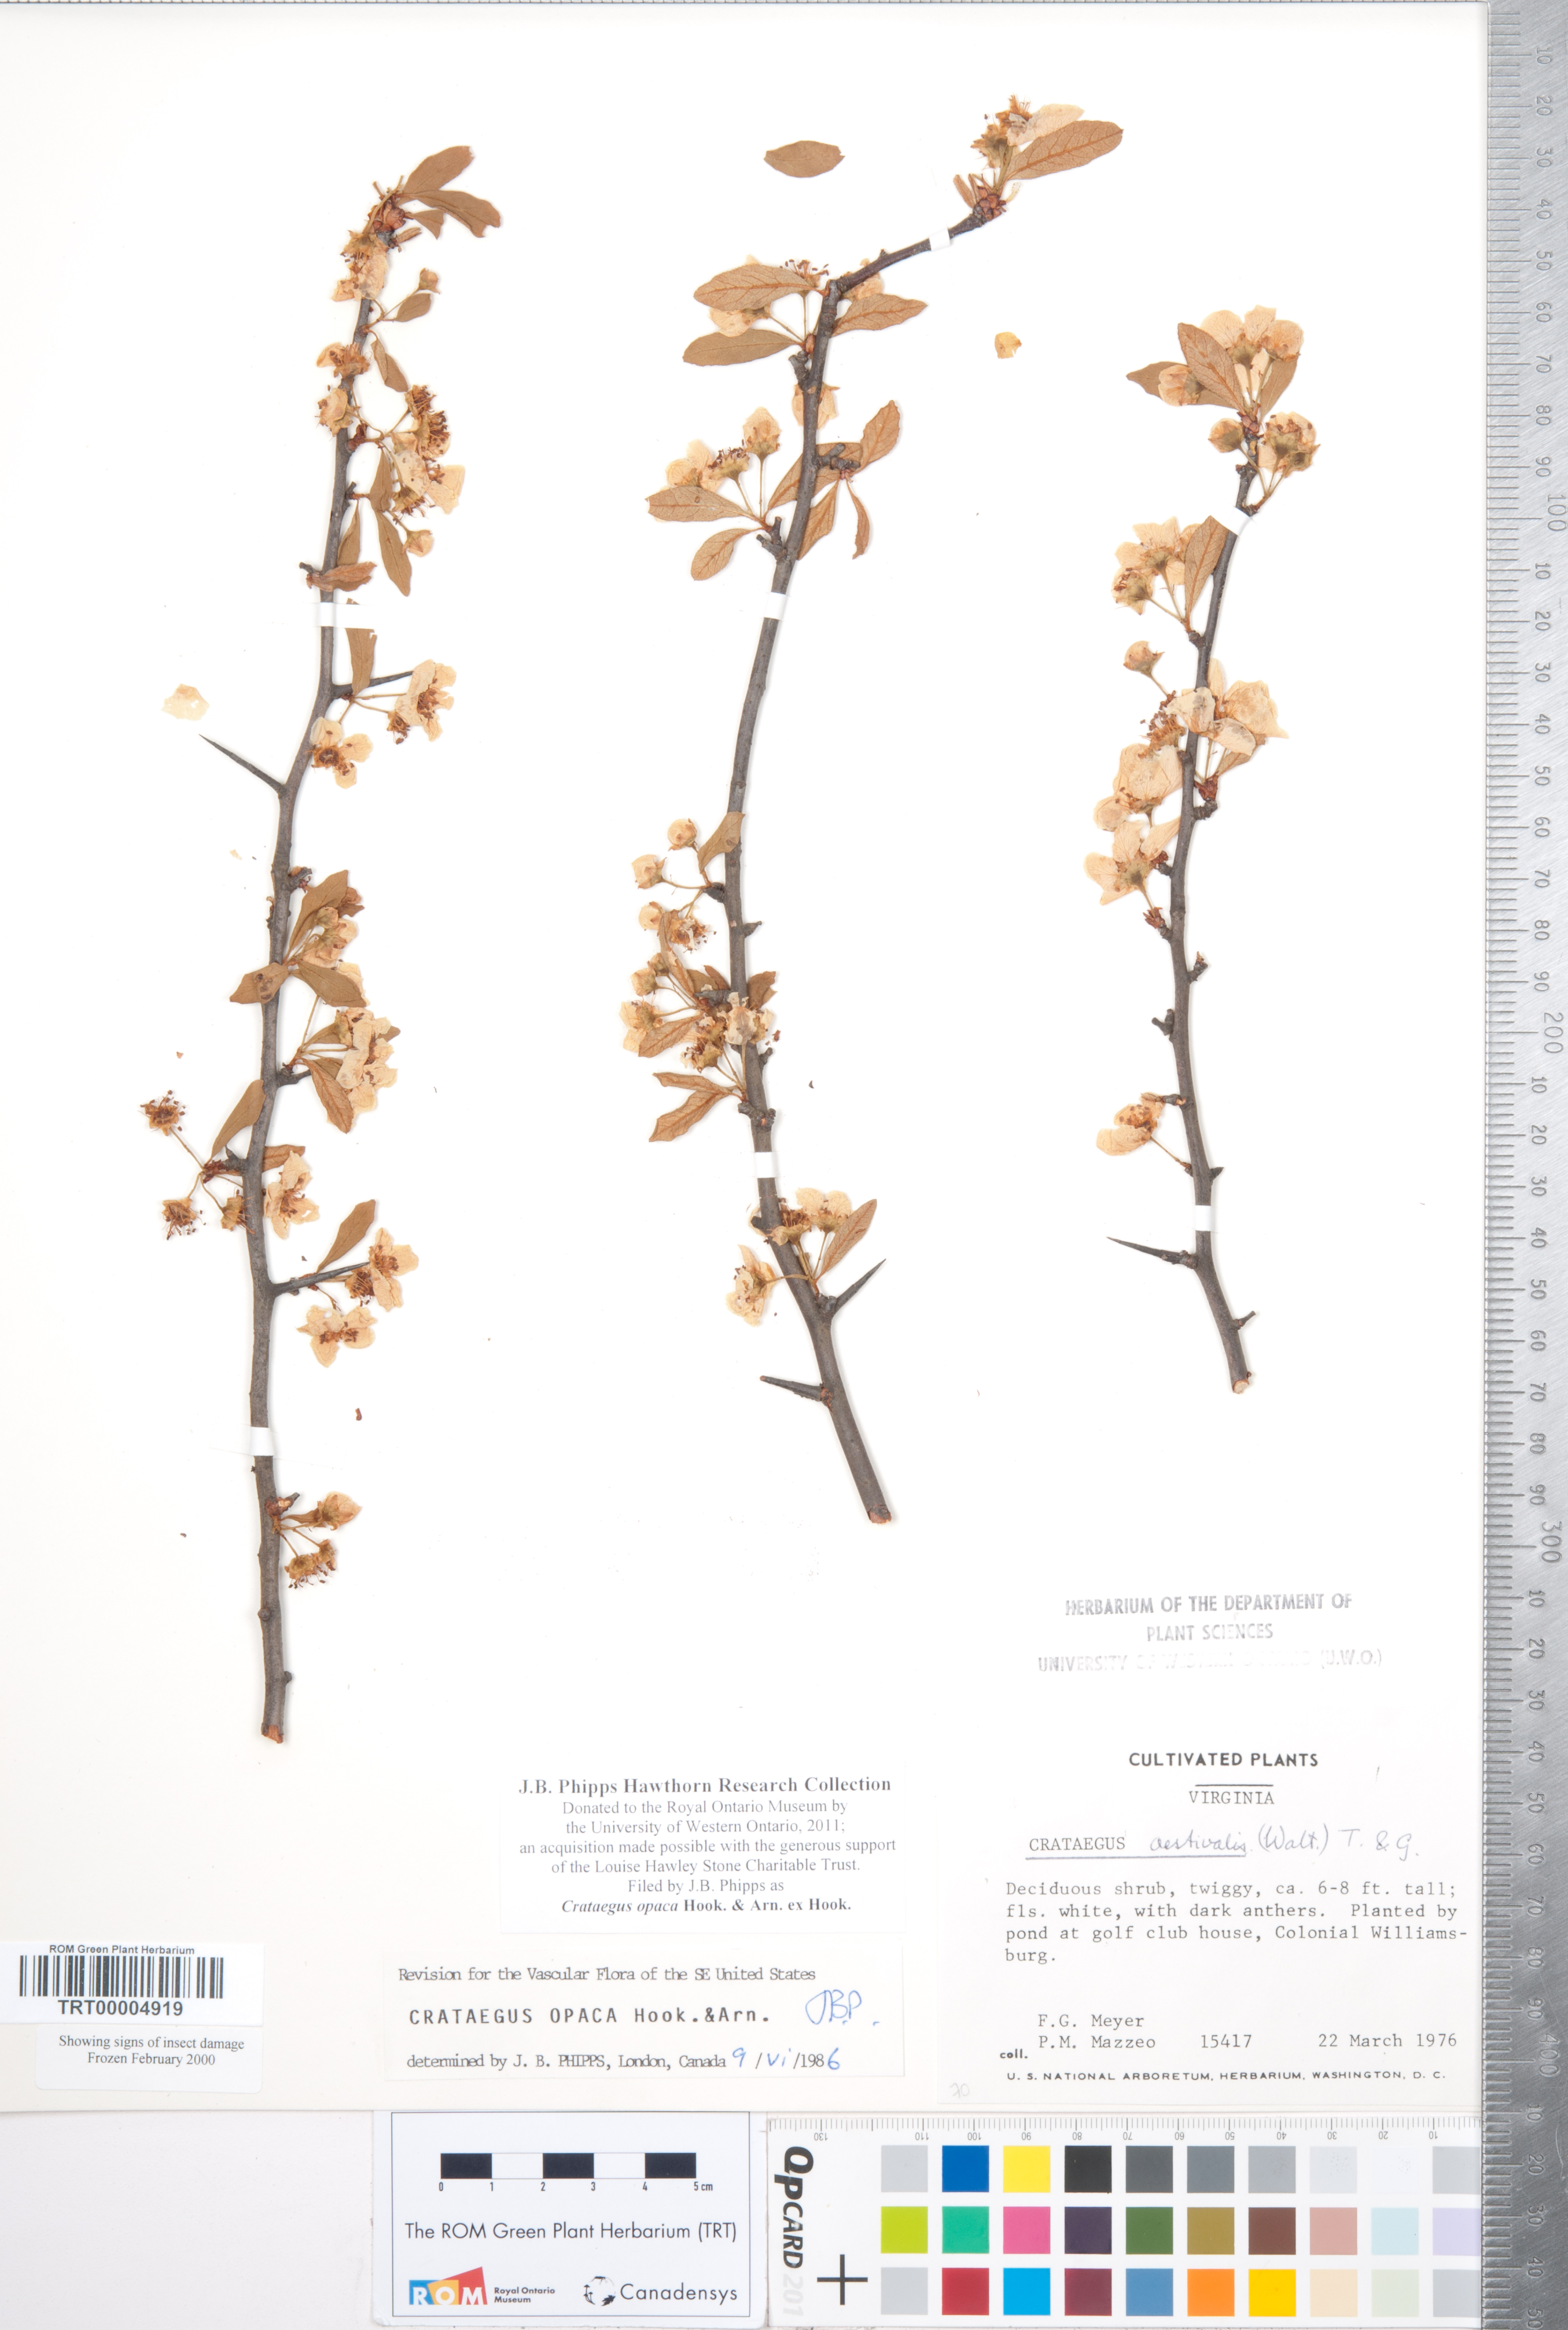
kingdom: Plantae
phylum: Tracheophyta
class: Magnoliopsida
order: Rosales
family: Rosaceae
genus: Crataegus
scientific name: Crataegus opaca
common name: Apple haw
